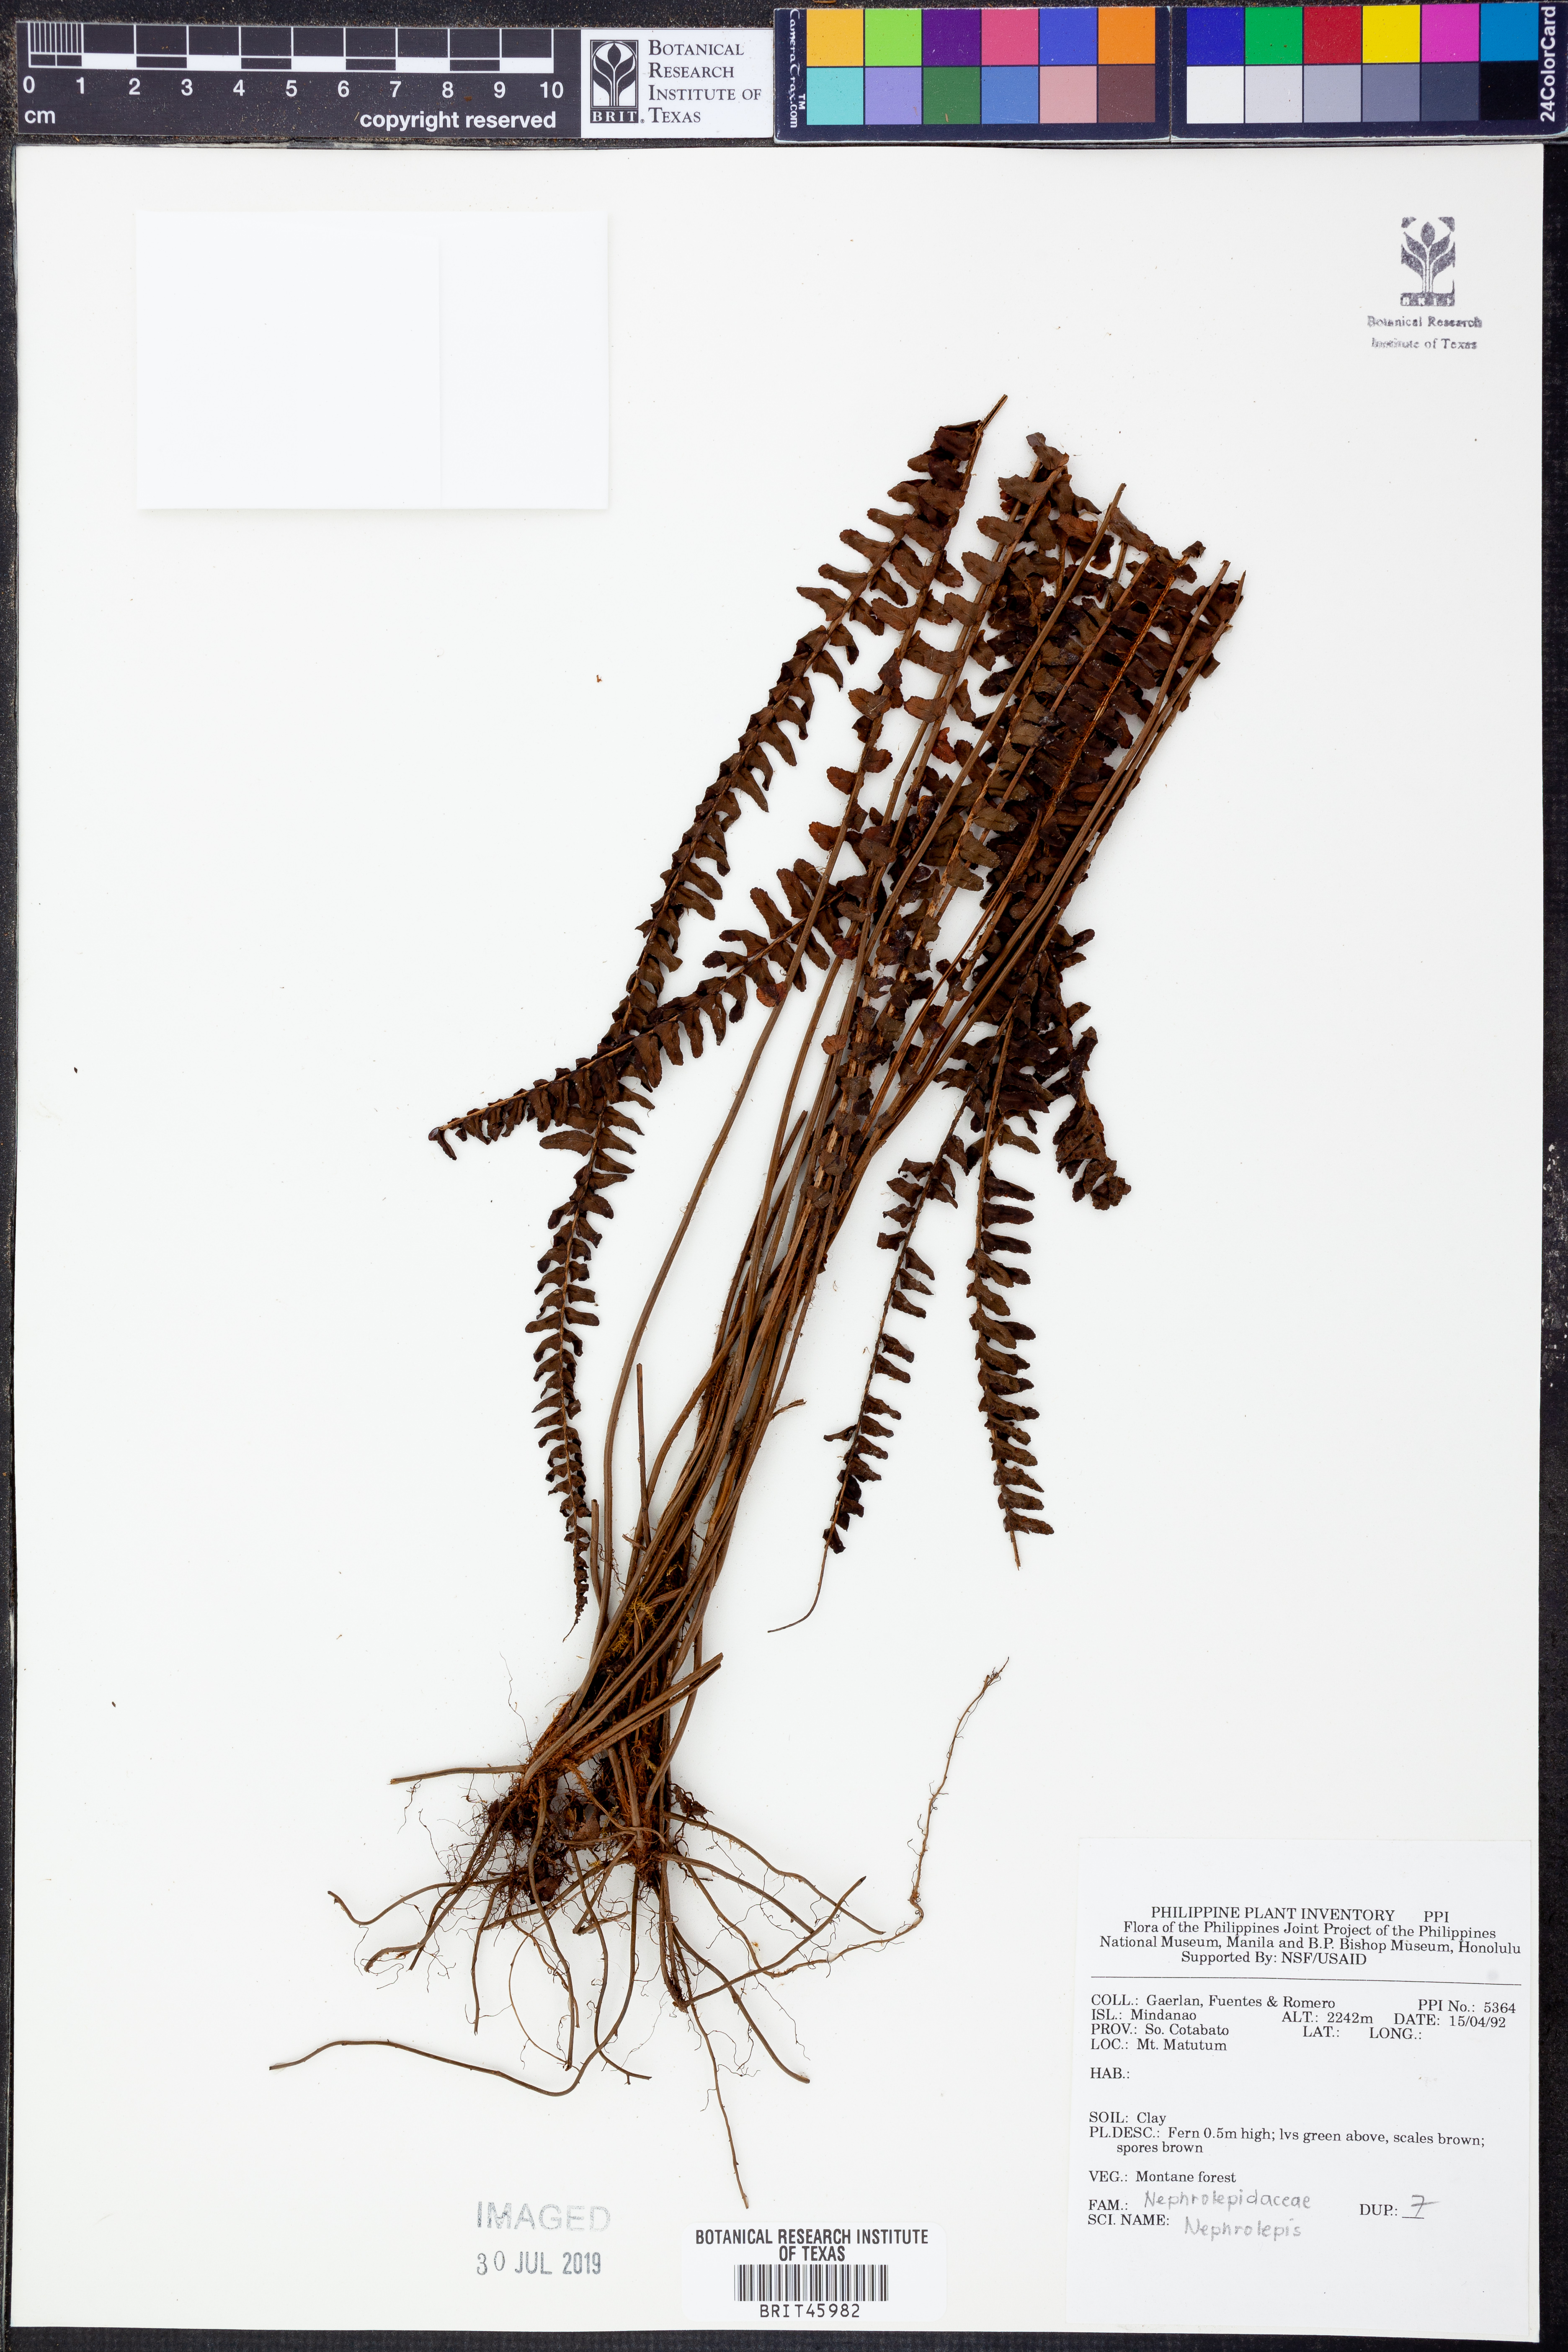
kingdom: Plantae
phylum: Tracheophyta
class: Polypodiopsida
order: Polypodiales
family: Nephrolepidaceae
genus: Nephrolepis
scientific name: Nephrolepis
